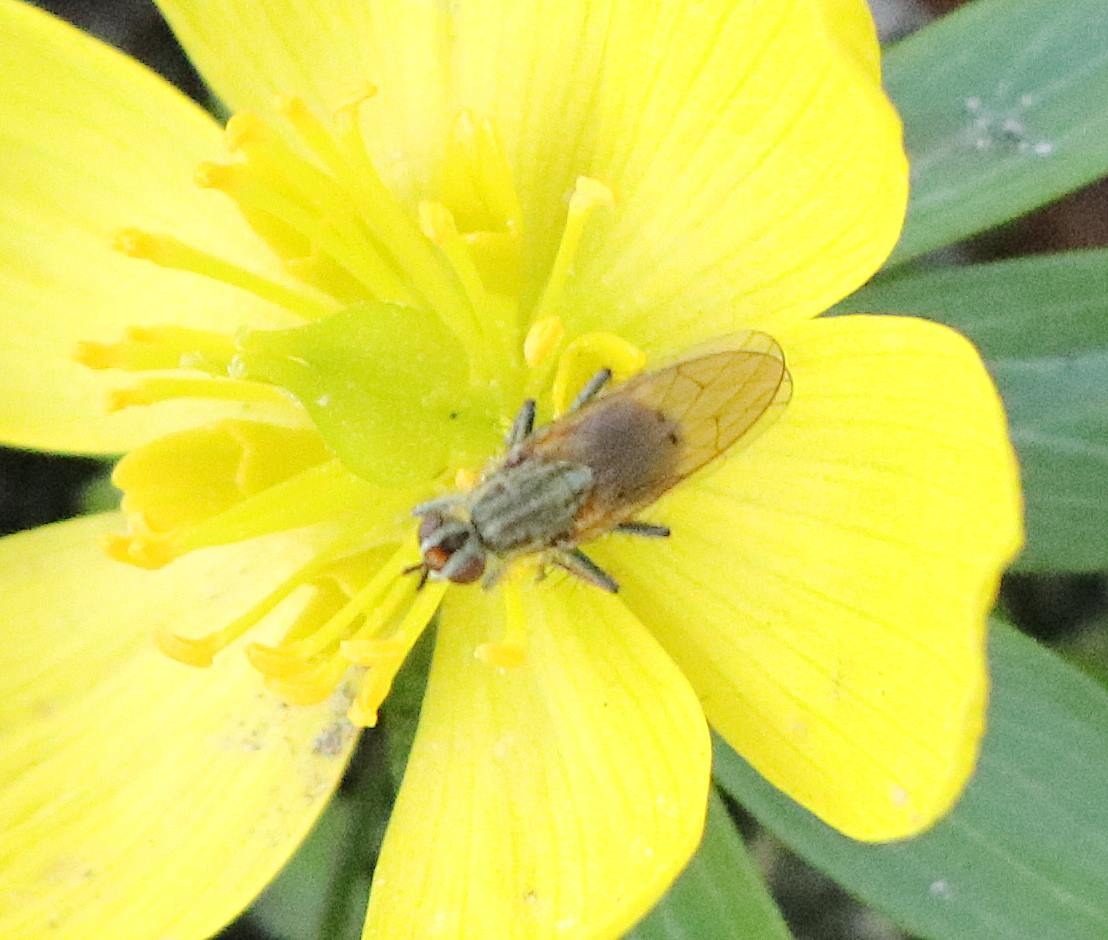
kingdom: Animalia
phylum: Arthropoda
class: Insecta
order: Diptera
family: Scathophagidae
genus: Scathophaga
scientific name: Scathophaga stercoraria
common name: Almindelig gødningsflue
